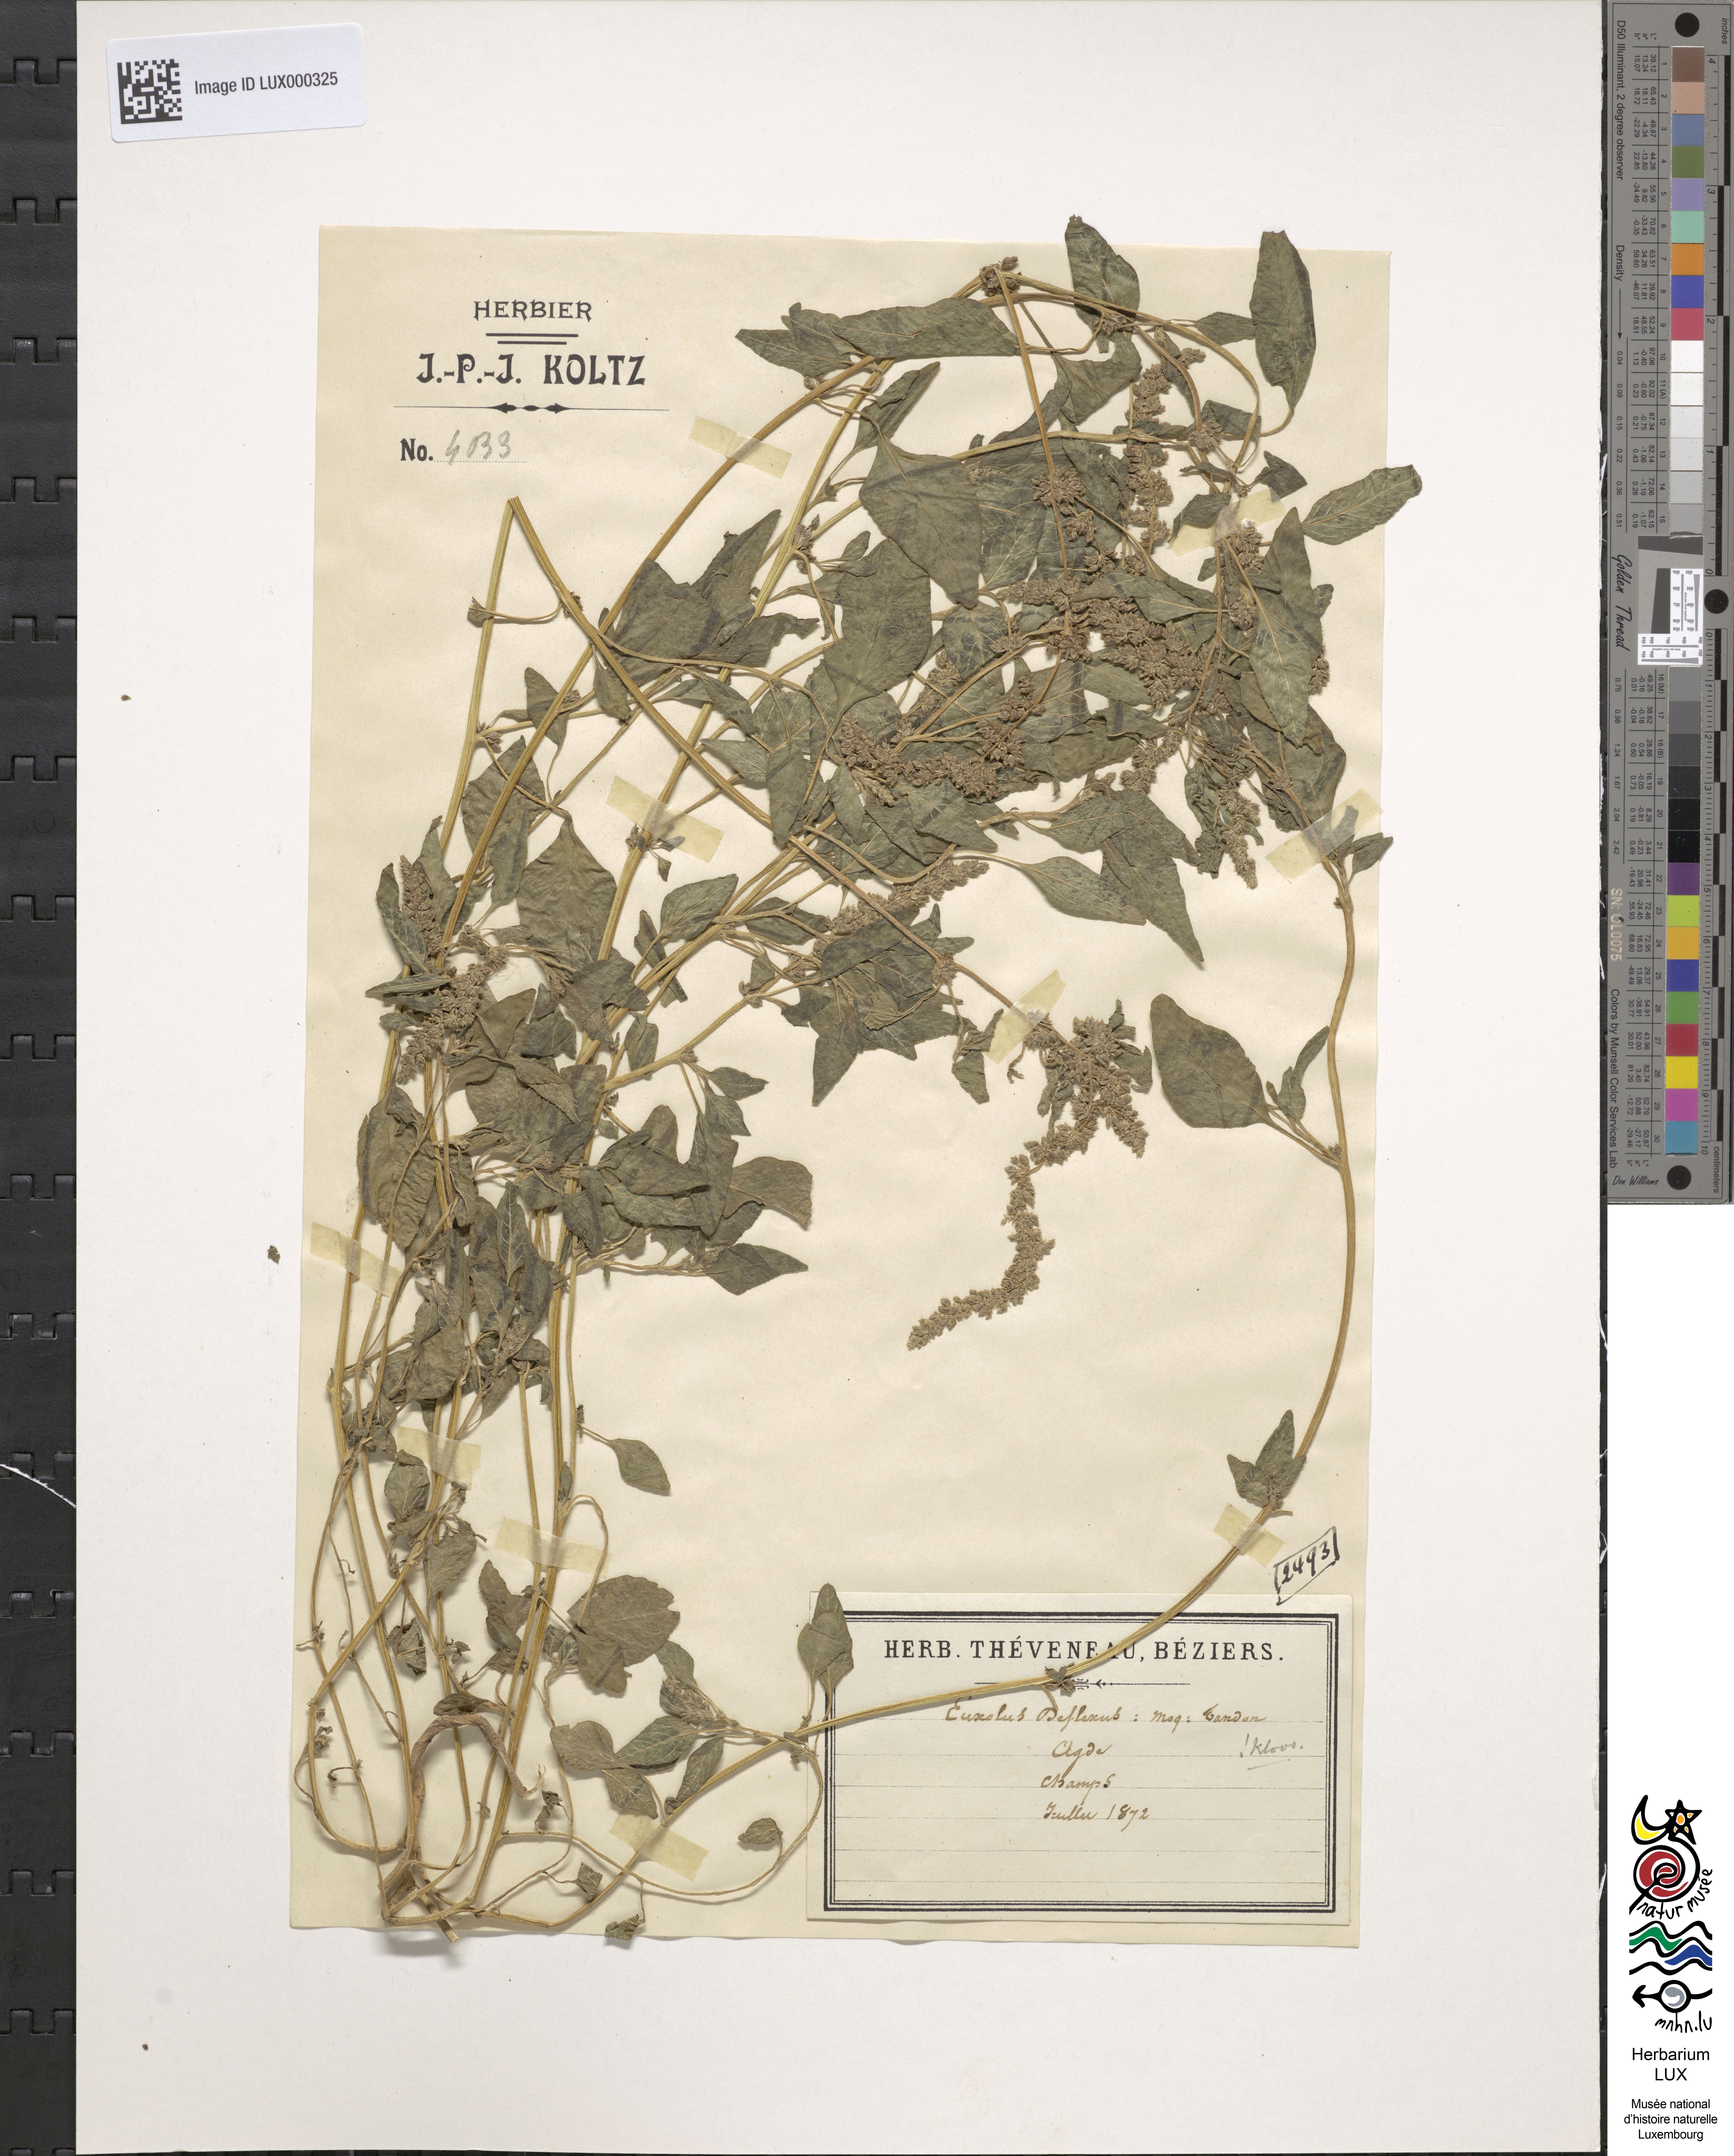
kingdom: Plantae
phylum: Tracheophyta
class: Magnoliopsida
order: Caryophyllales
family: Amaranthaceae
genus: Amaranthus
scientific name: Amaranthus deflexus
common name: Perennial pigweed
